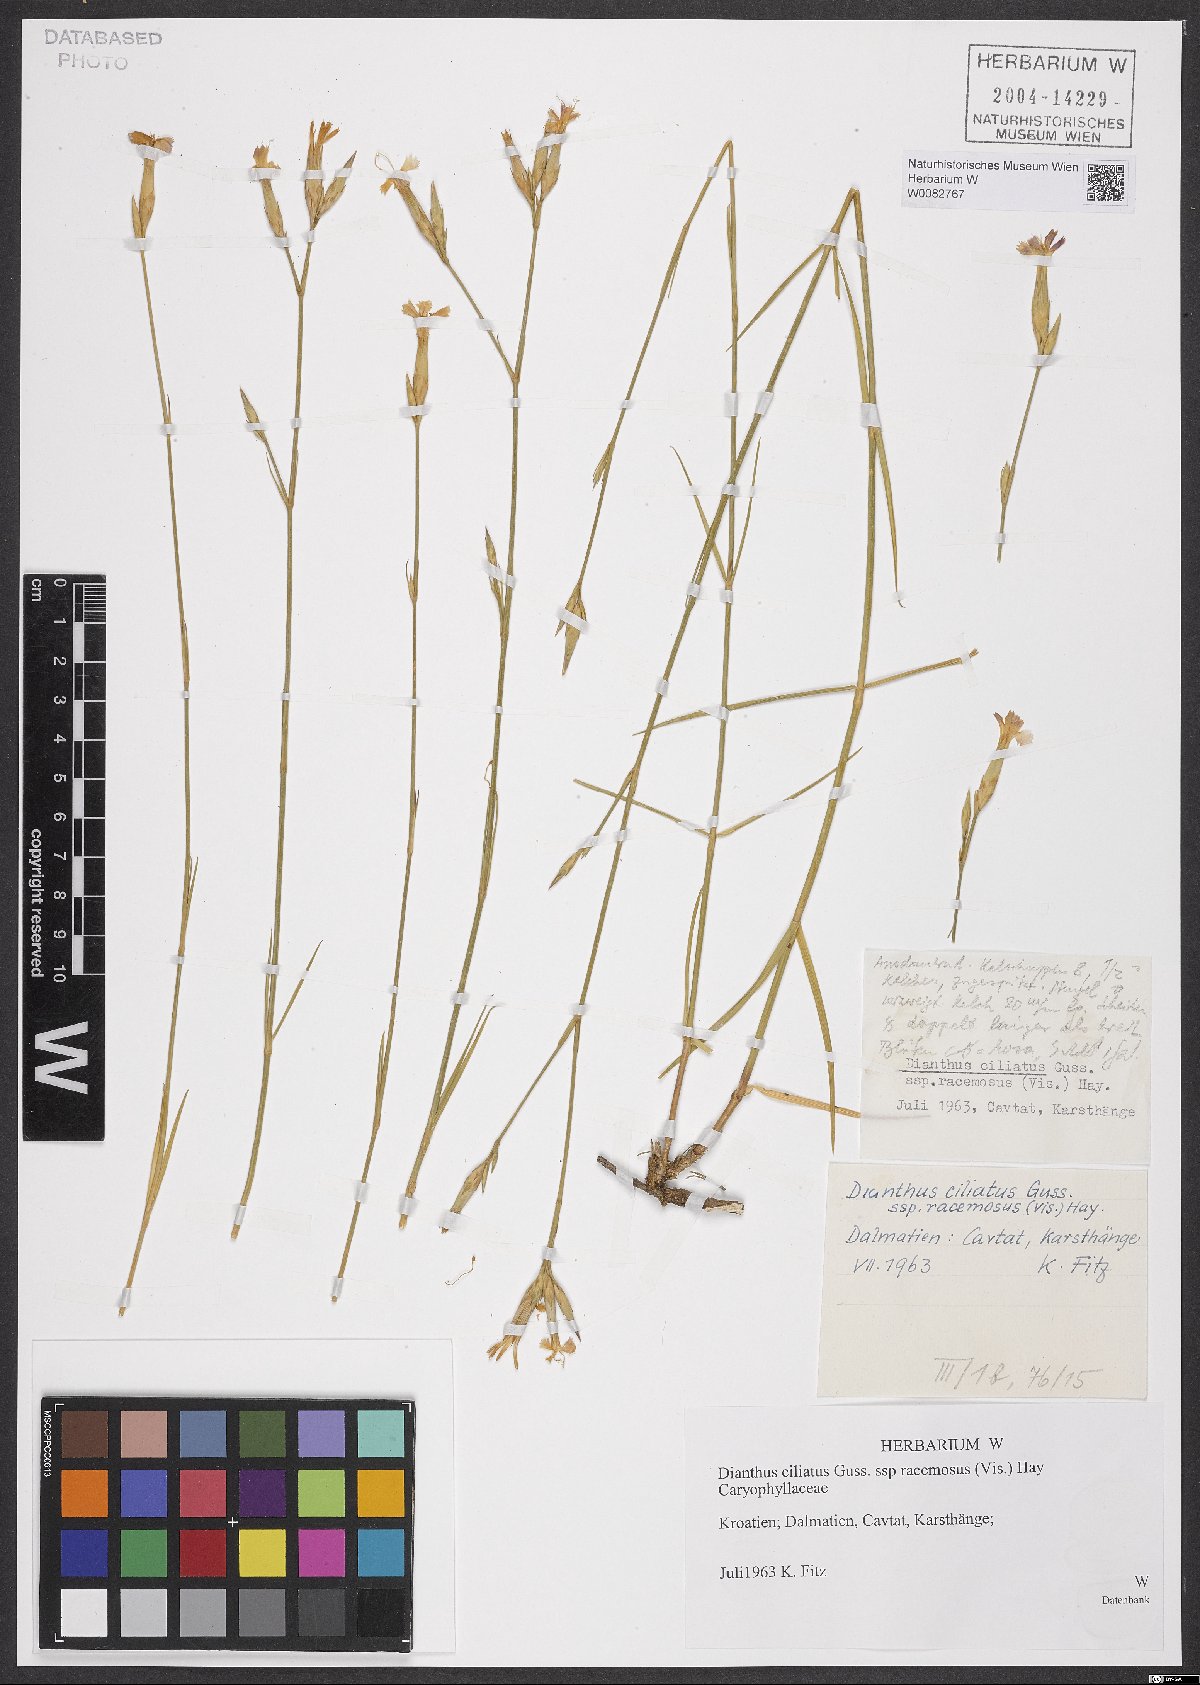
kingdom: Plantae
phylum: Tracheophyta
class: Magnoliopsida
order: Caryophyllales
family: Caryophyllaceae
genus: Dianthus
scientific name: Dianthus ciliatus
